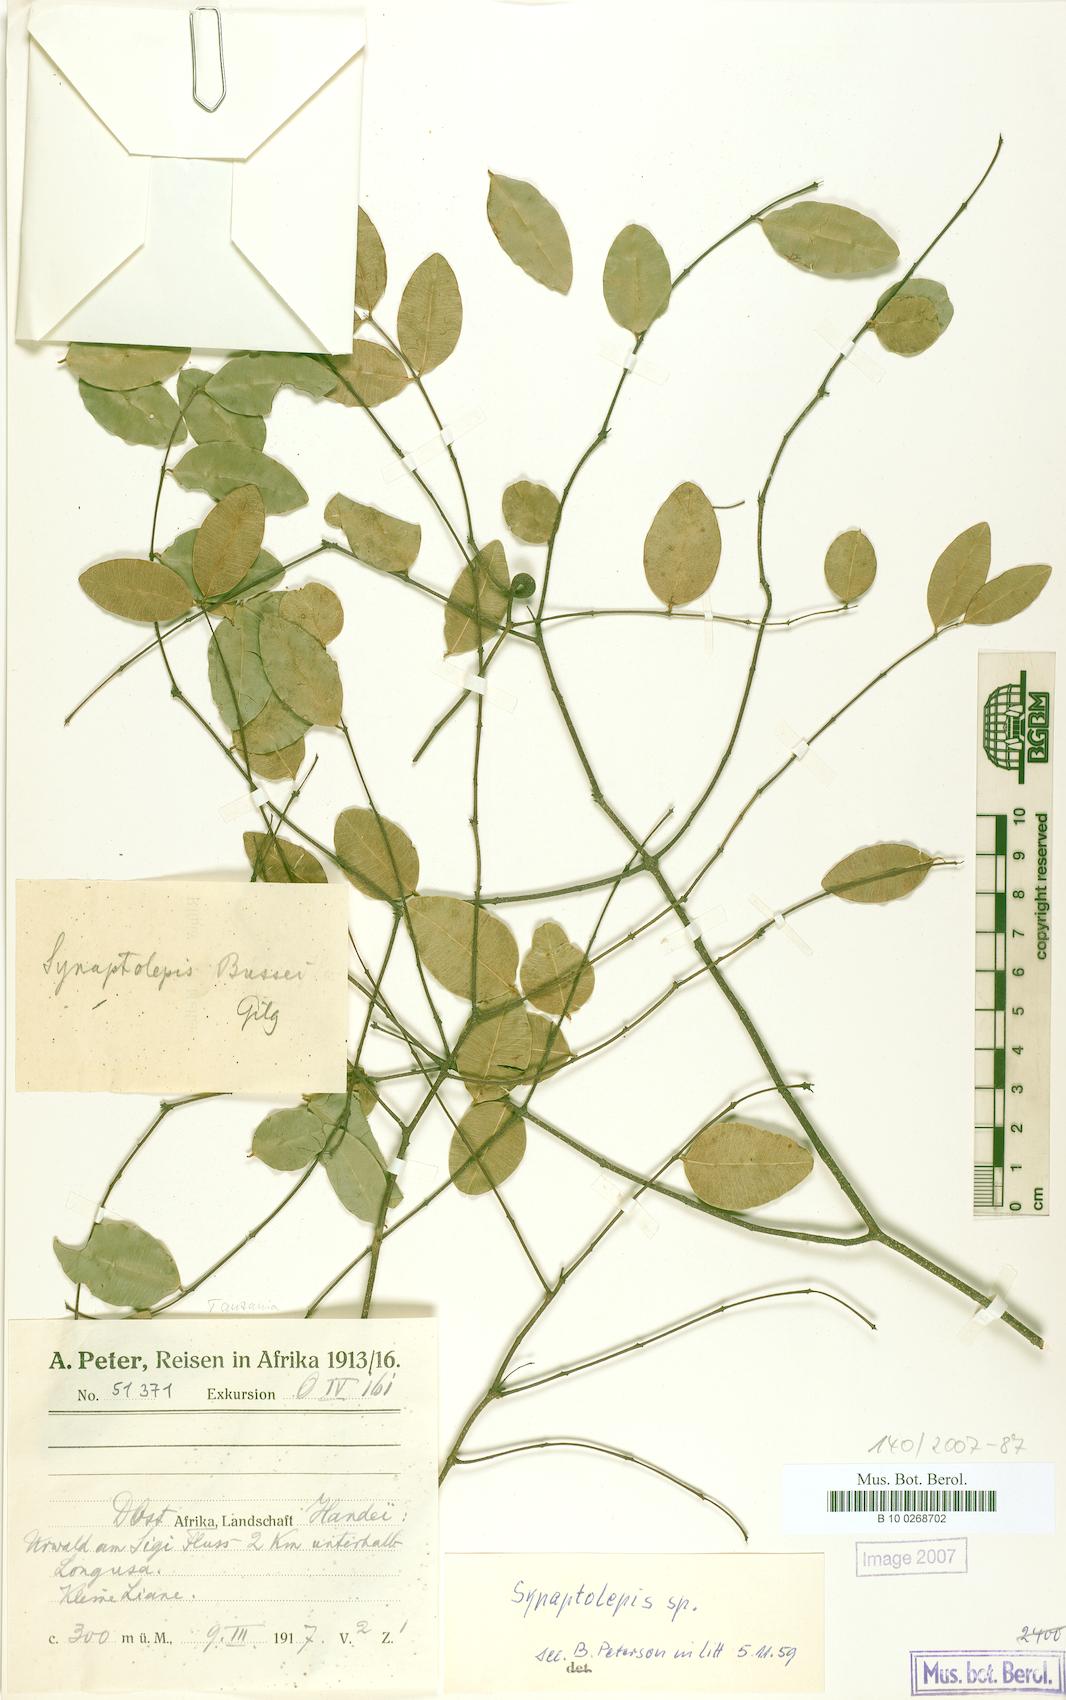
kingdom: Plantae
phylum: Tracheophyta
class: Magnoliopsida
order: Malvales
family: Thymelaeaceae
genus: Synaptolepis
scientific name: Synaptolepis
